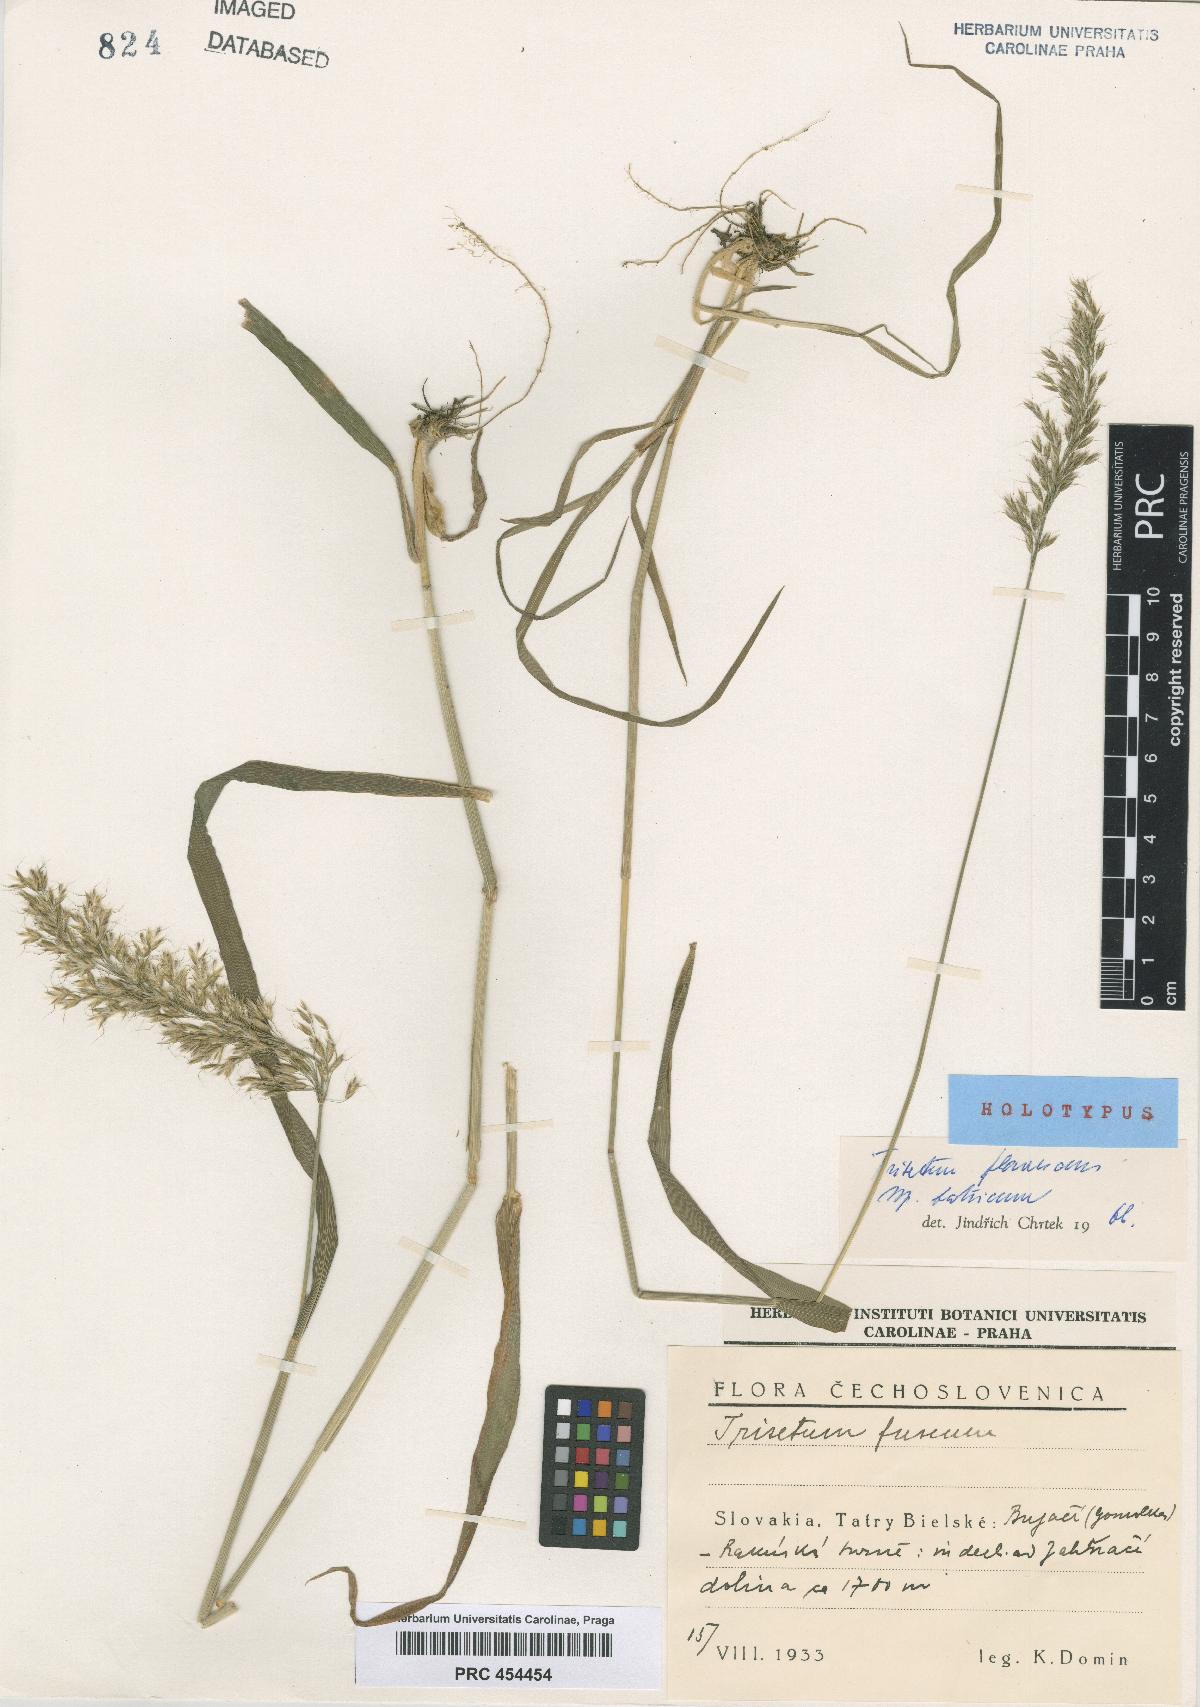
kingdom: Plantae
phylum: Tracheophyta
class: Liliopsida
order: Poales
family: Poaceae
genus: Trisetum
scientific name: Trisetum flavescens
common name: Yellow oat-grass
